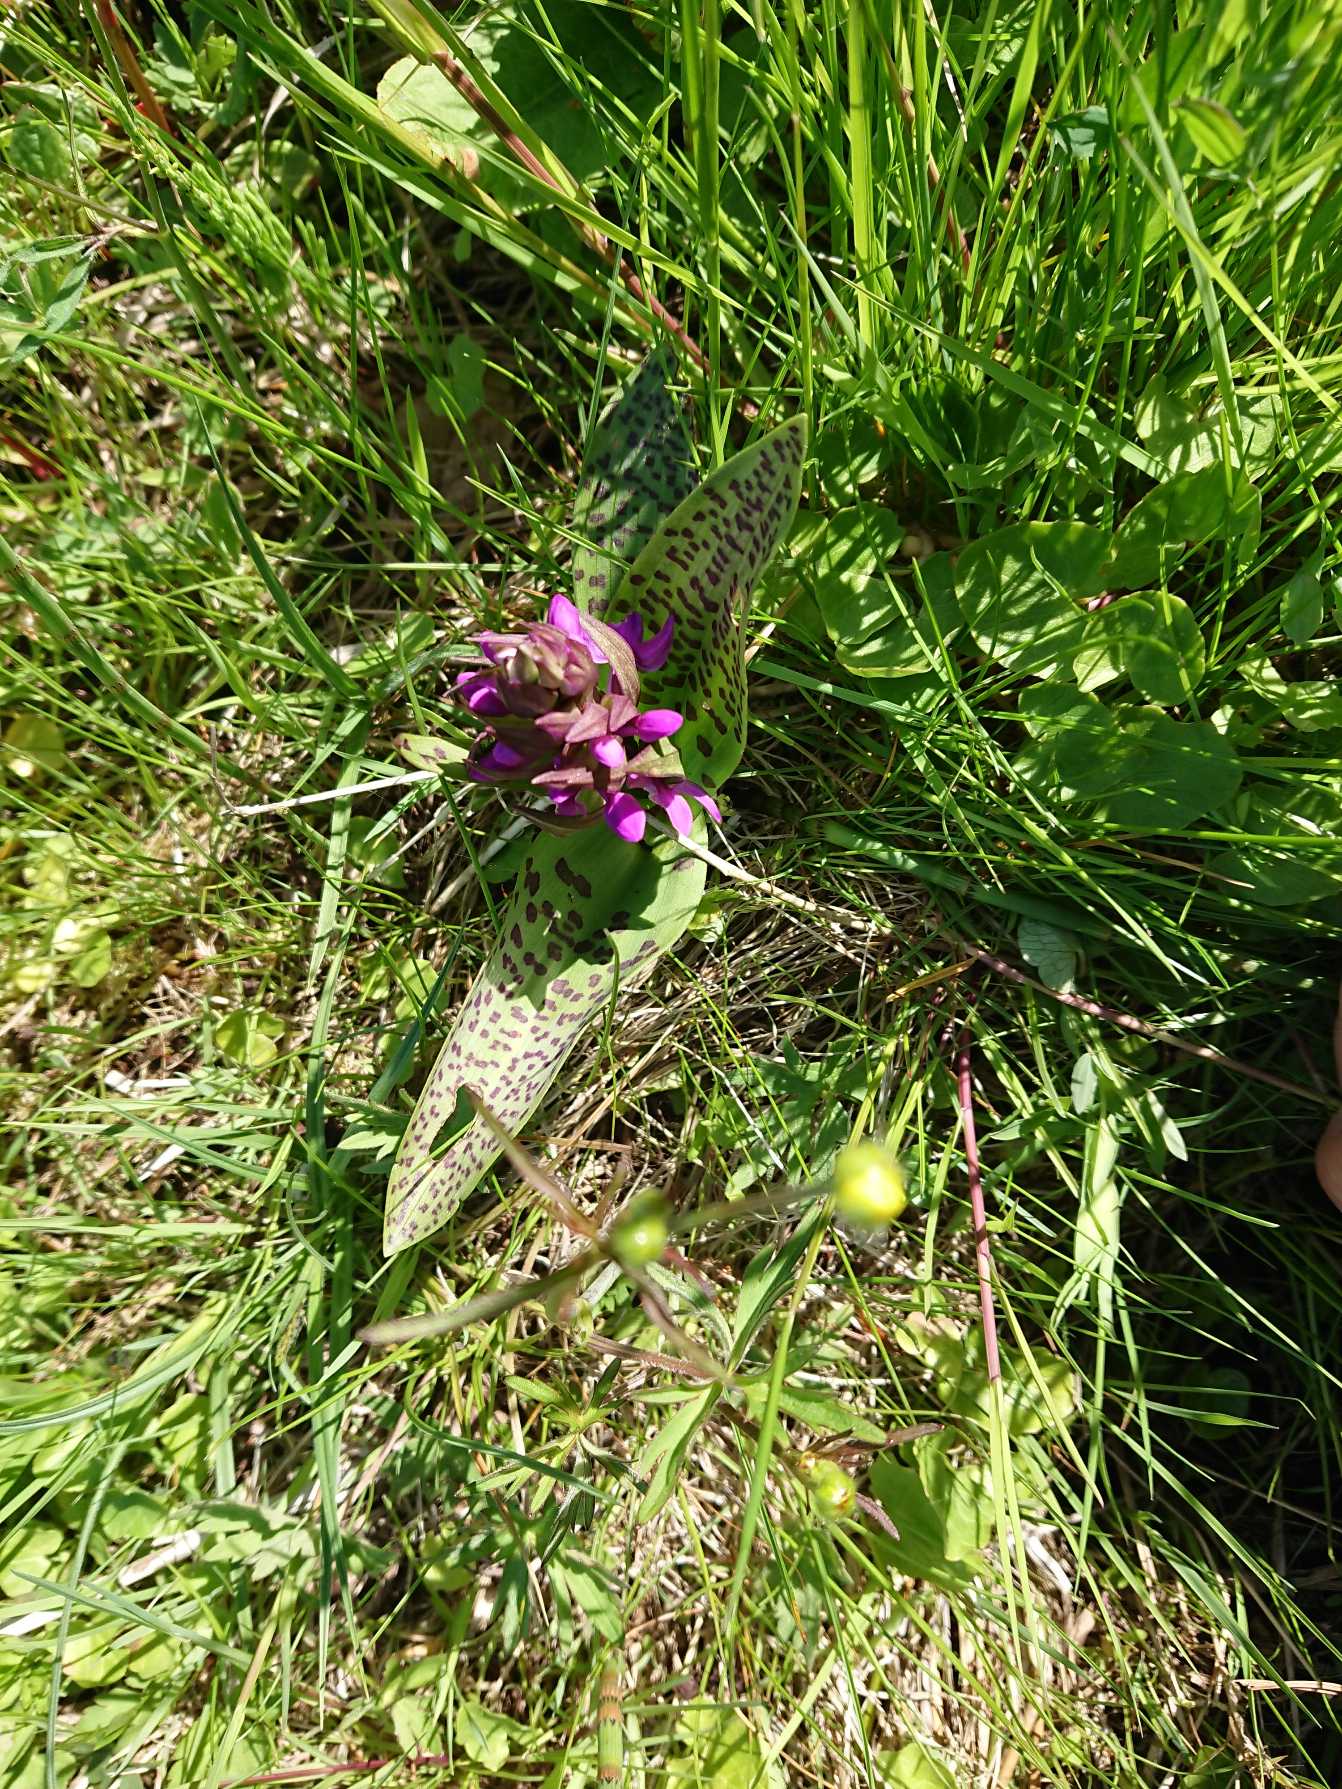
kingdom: Plantae
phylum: Tracheophyta
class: Liliopsida
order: Asparagales
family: Orchidaceae
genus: Dactylorhiza
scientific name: Dactylorhiza majalis
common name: Maj-gøgeurt (underart)
